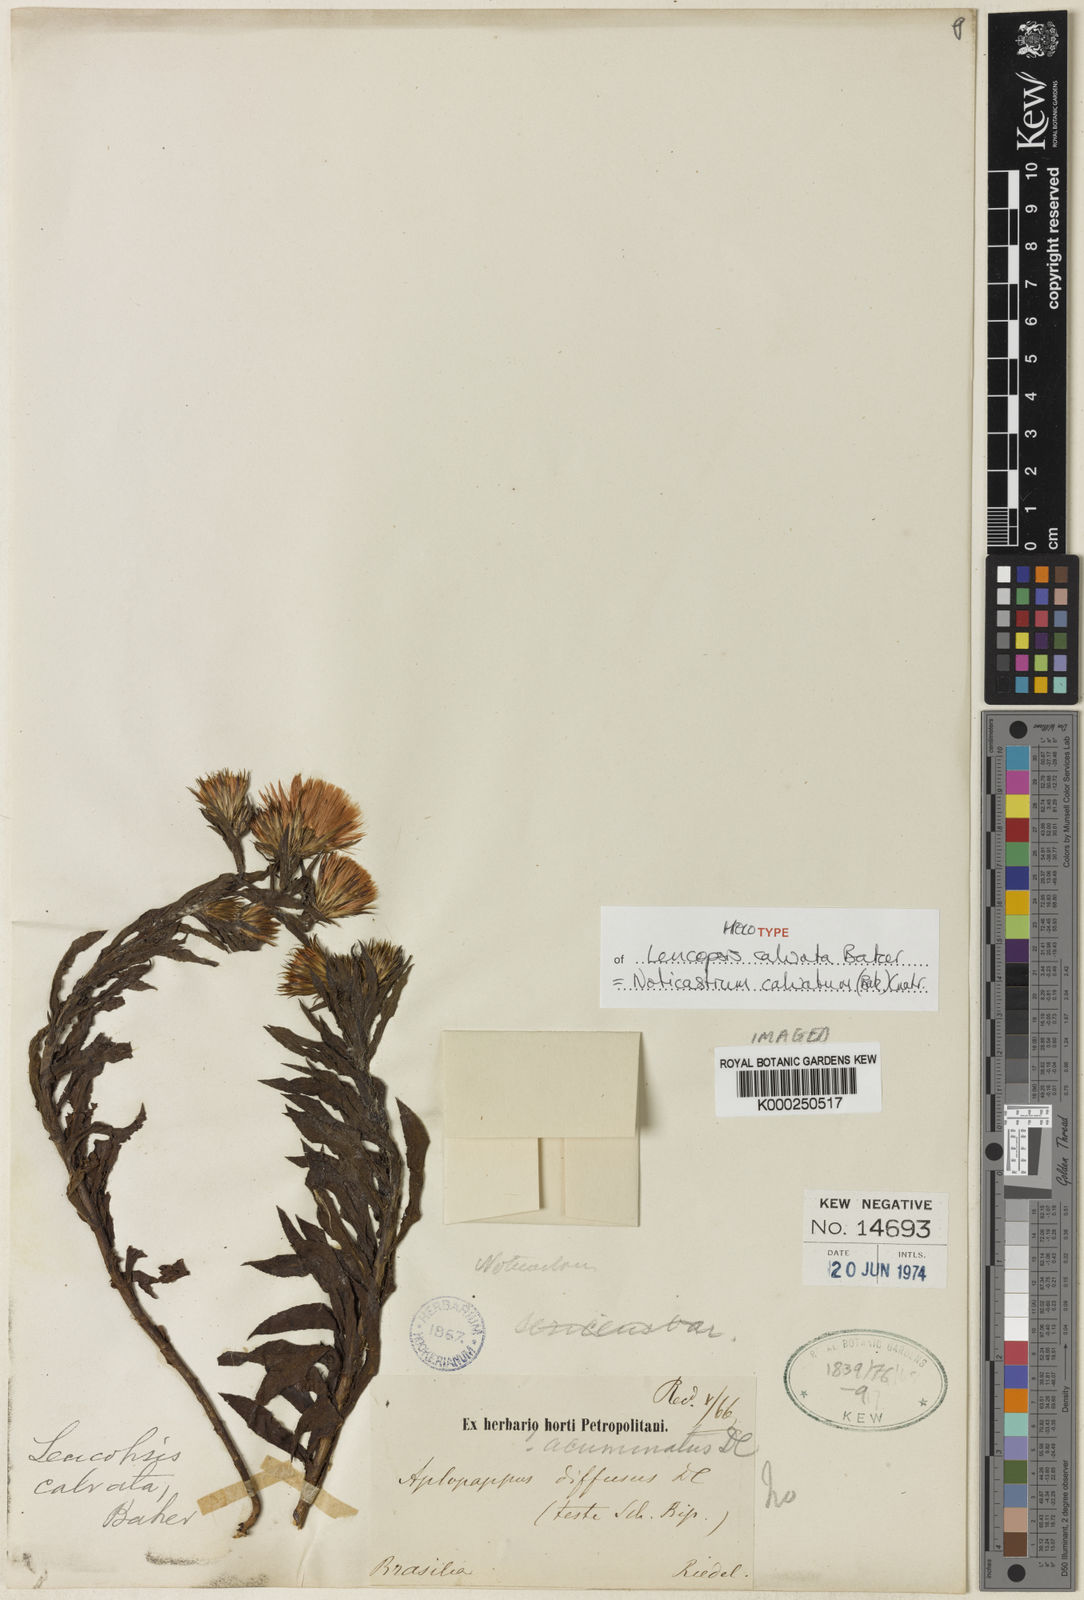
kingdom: Plantae
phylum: Tracheophyta
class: Magnoliopsida
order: Asterales
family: Asteraceae
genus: Noticastrum
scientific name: Noticastrum calvatum
